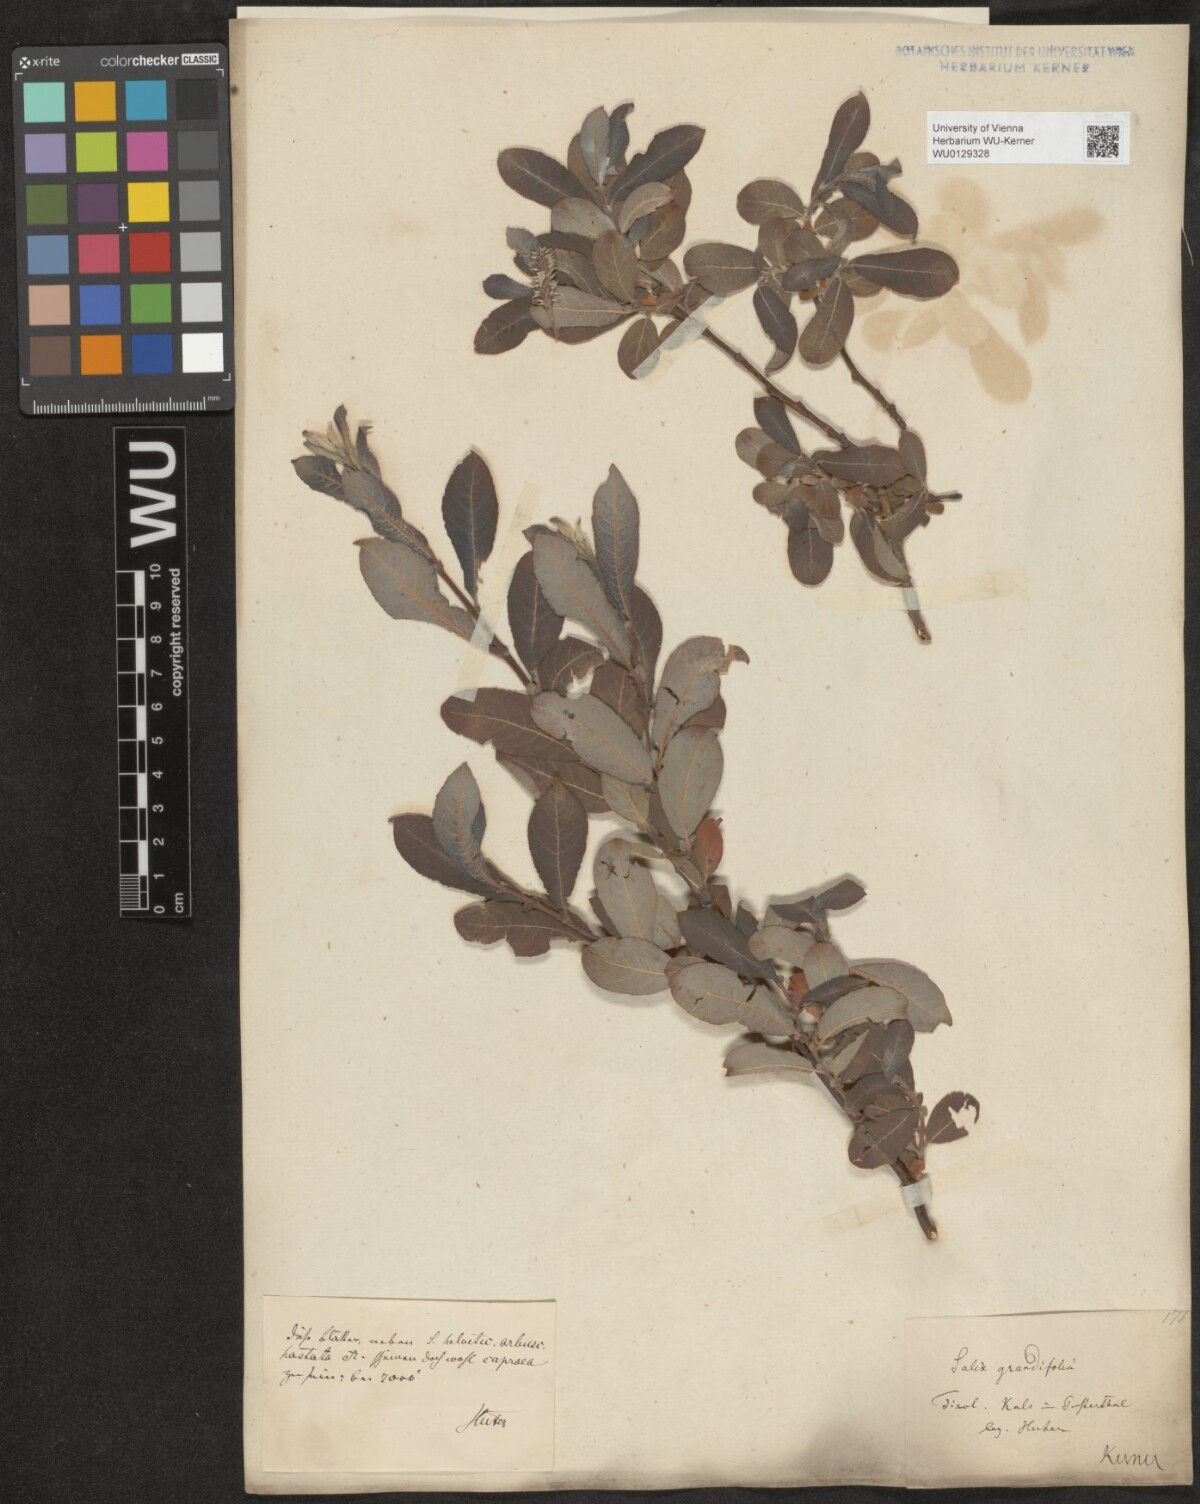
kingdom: Plantae
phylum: Tracheophyta
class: Magnoliopsida
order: Malpighiales
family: Salicaceae
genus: Salix
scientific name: Salix appendiculata
